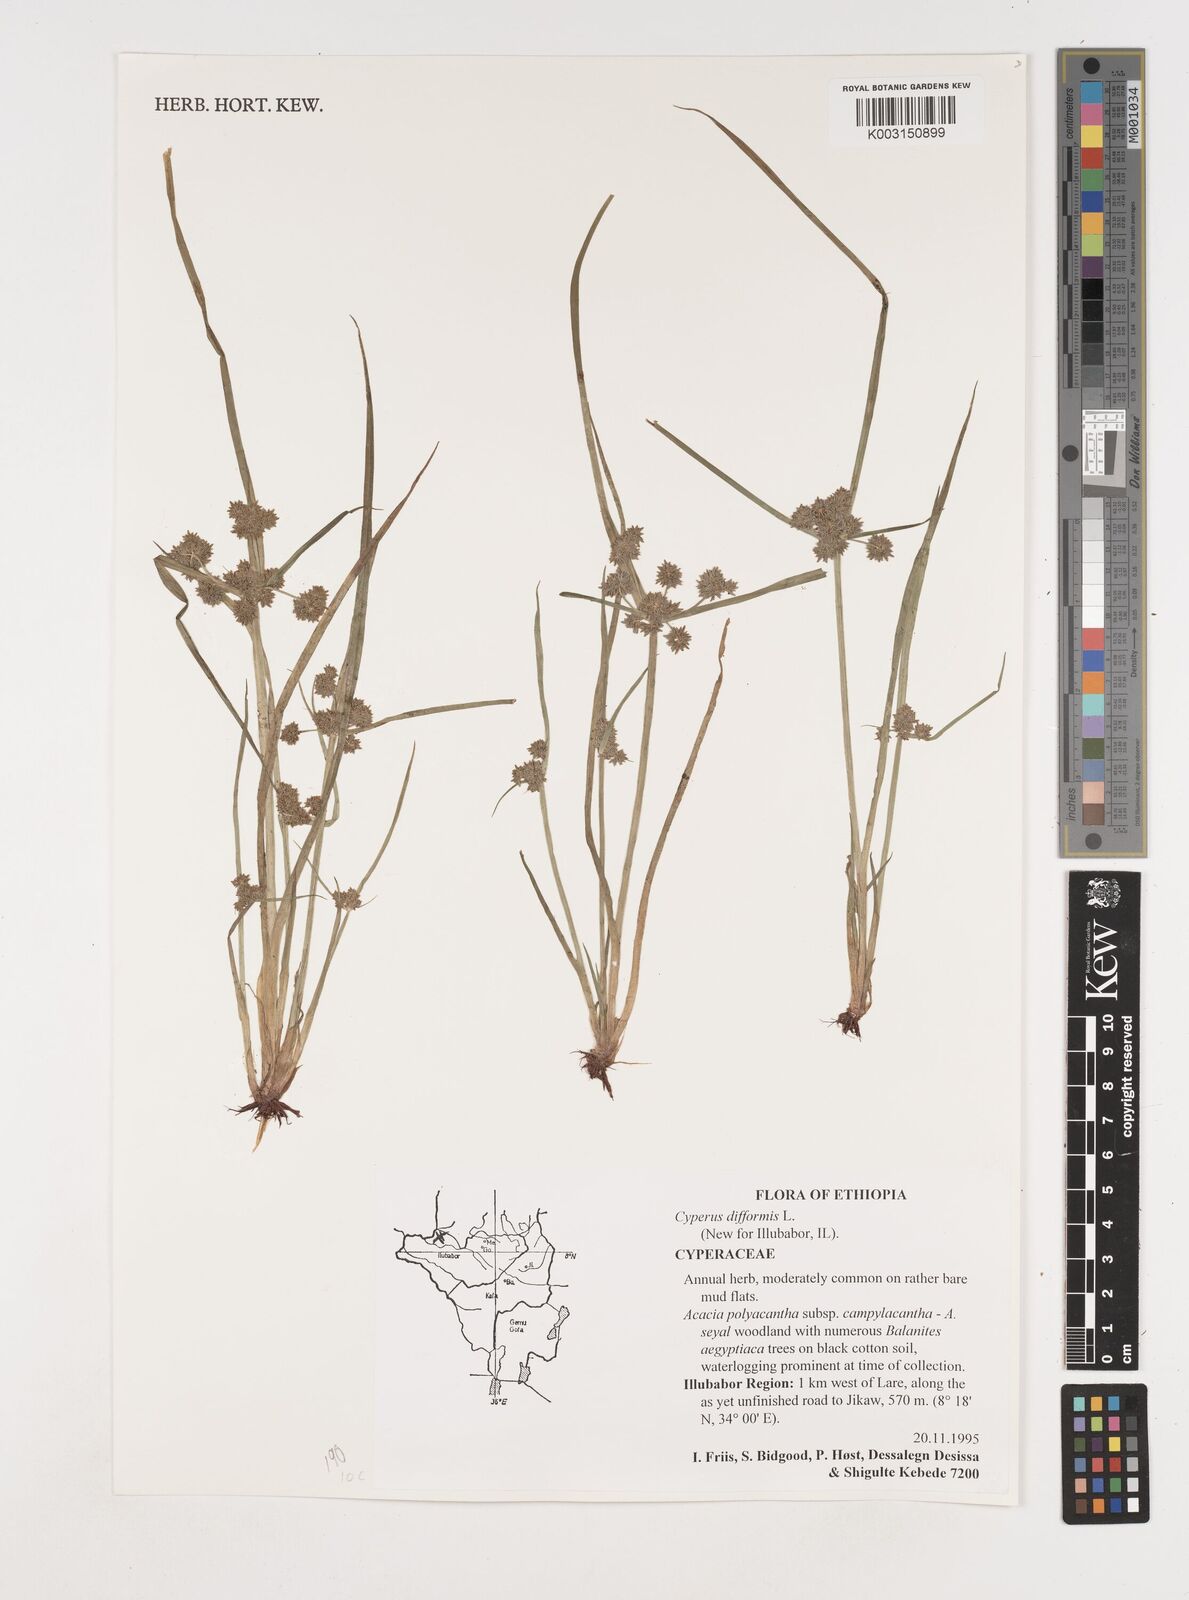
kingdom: Plantae
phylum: Tracheophyta
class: Liliopsida
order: Poales
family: Cyperaceae
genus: Cyperus
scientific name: Cyperus difformis
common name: Variable flatsedge
